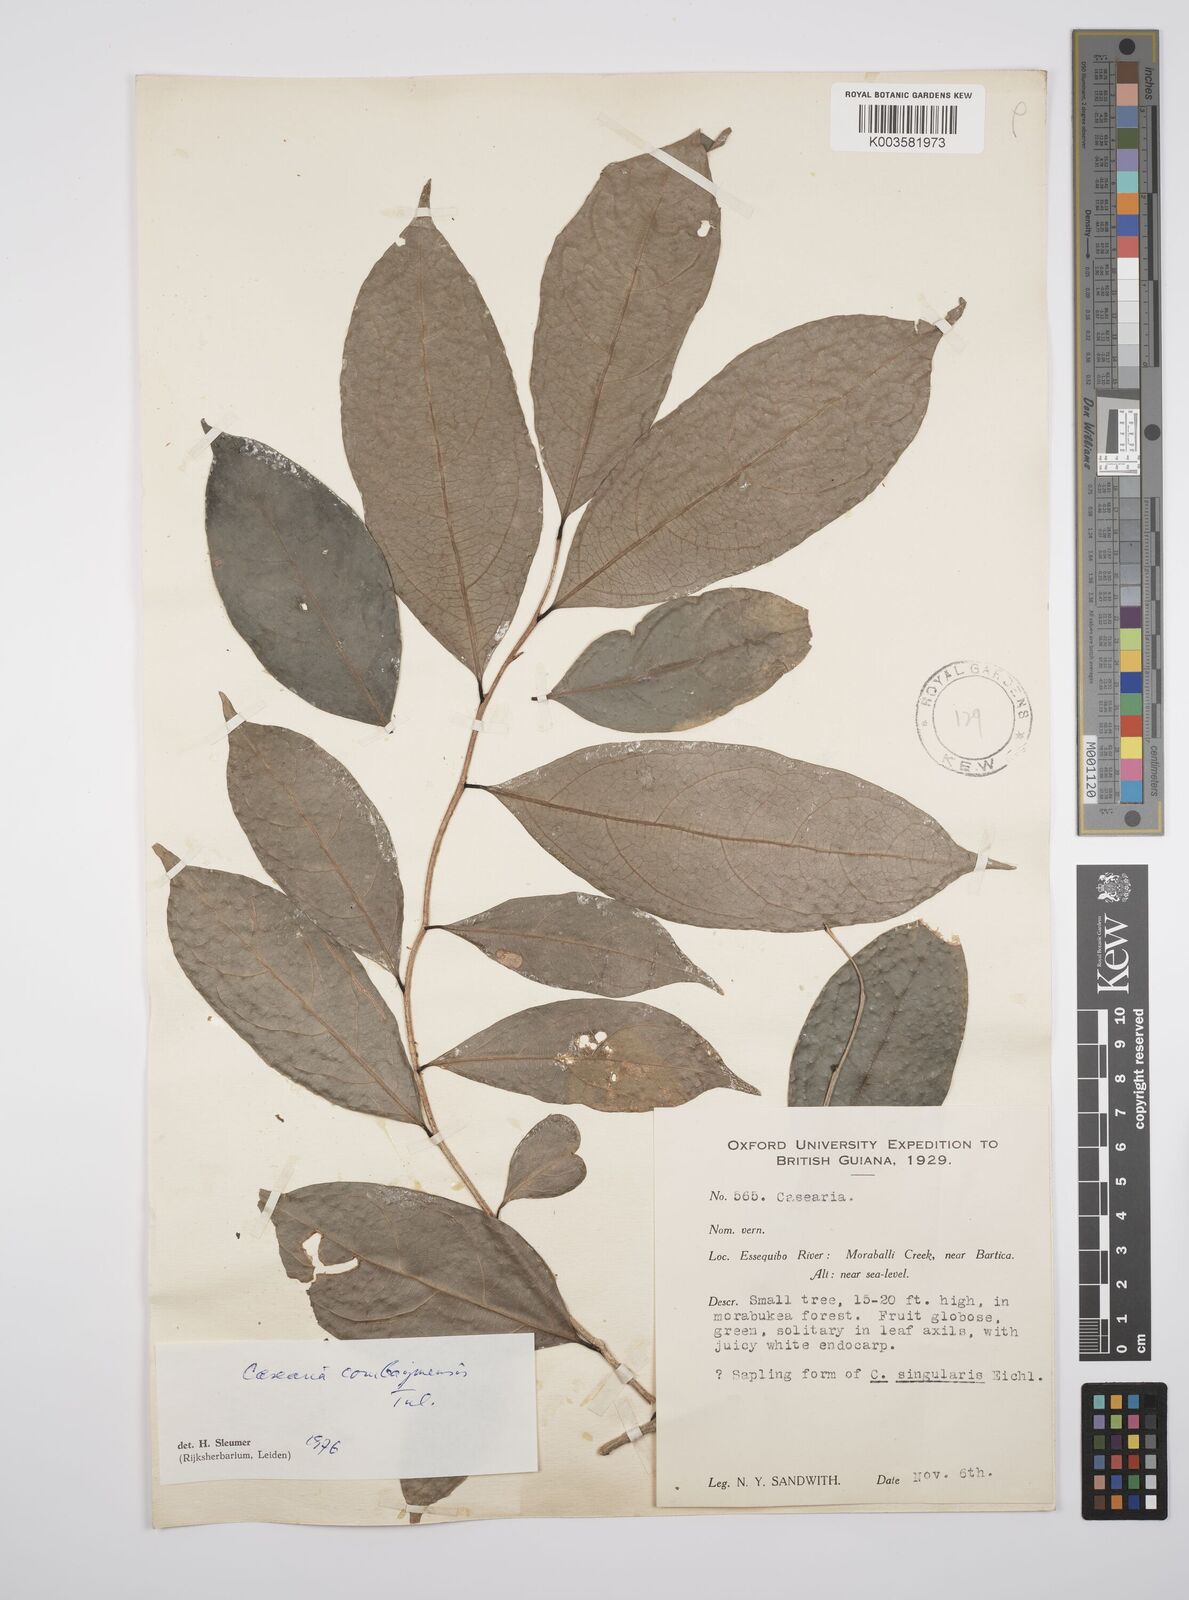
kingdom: Plantae
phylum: Tracheophyta
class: Magnoliopsida
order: Malpighiales
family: Salicaceae
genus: Casearia
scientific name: Casearia combaymensis
